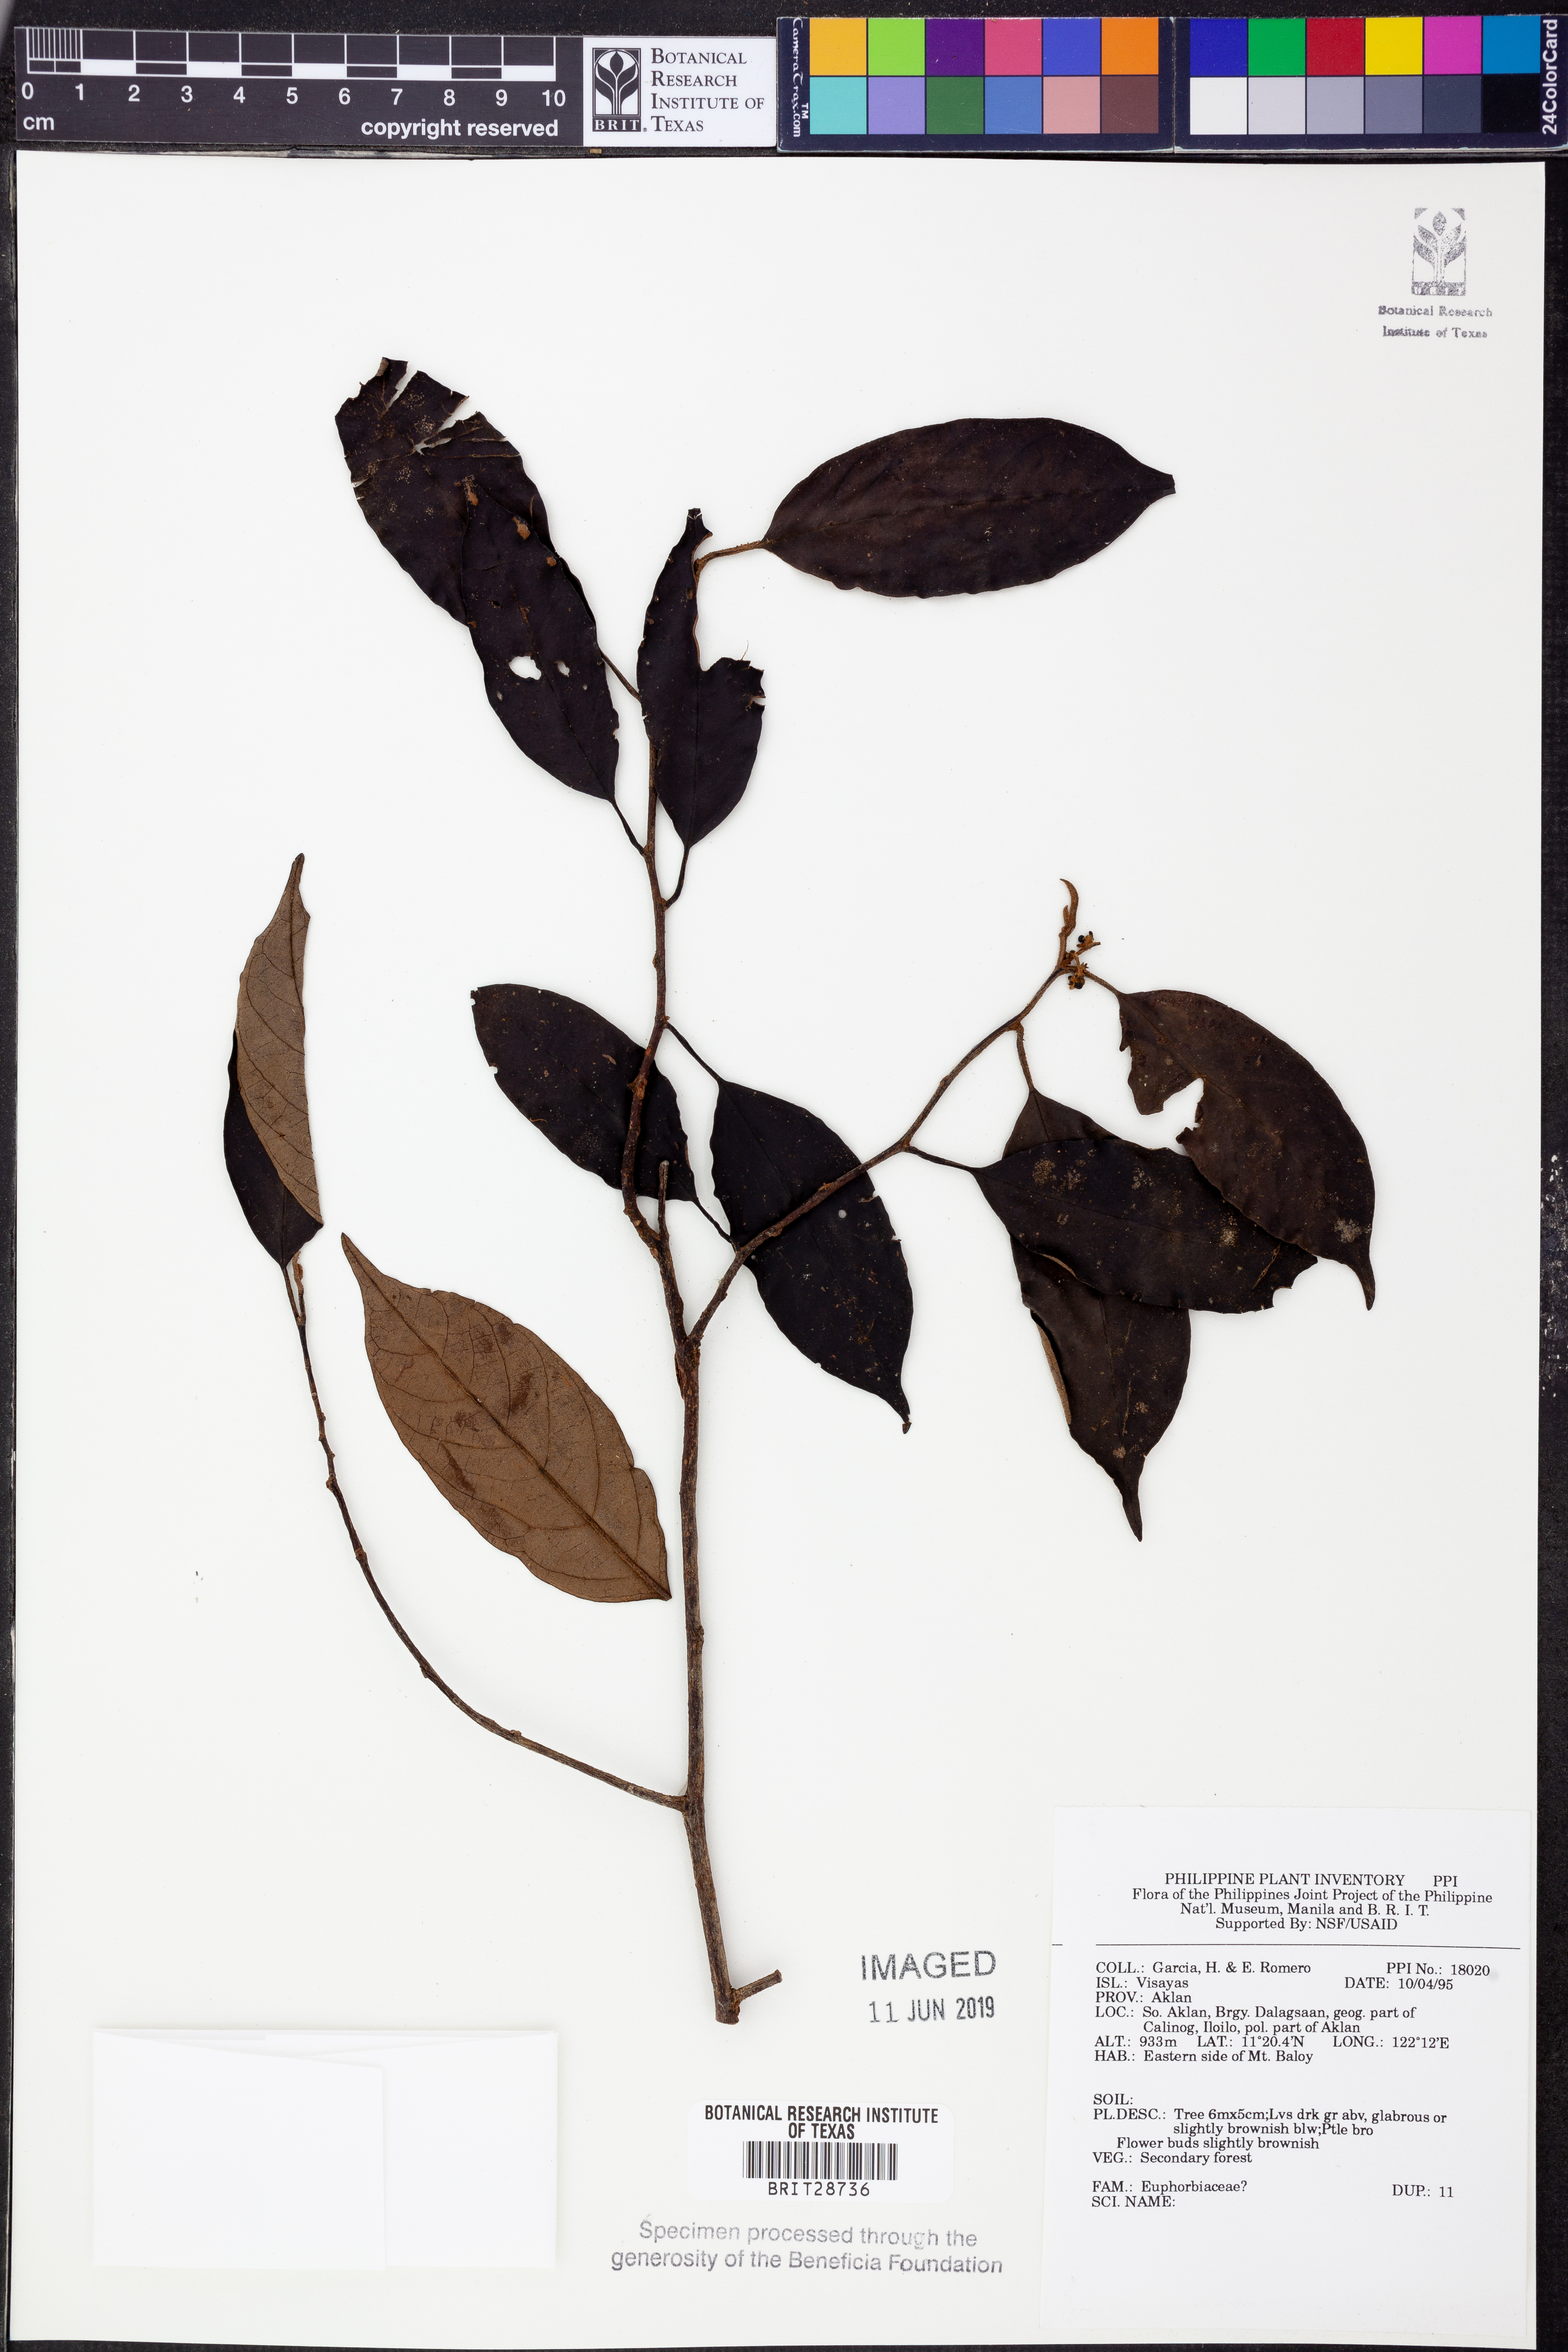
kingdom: Plantae
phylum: Tracheophyta
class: Magnoliopsida
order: Malpighiales
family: Euphorbiaceae
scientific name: Euphorbiaceae
